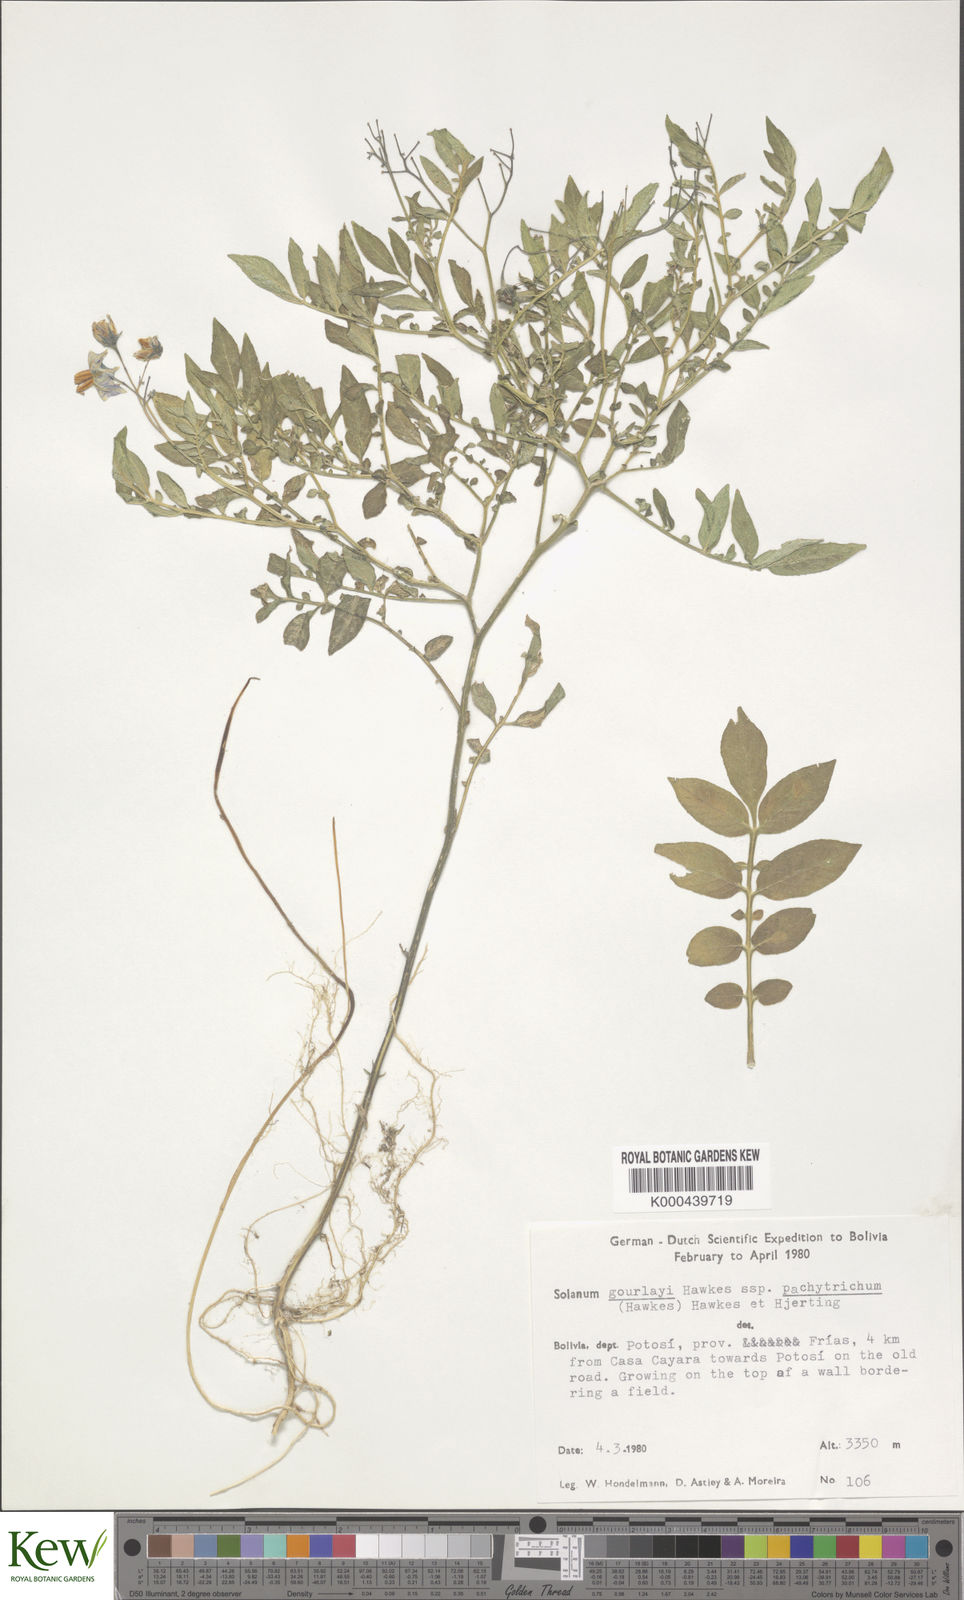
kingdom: Plantae
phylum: Tracheophyta
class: Magnoliopsida
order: Solanales
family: Solanaceae
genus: Solanum
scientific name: Solanum brevicaule
